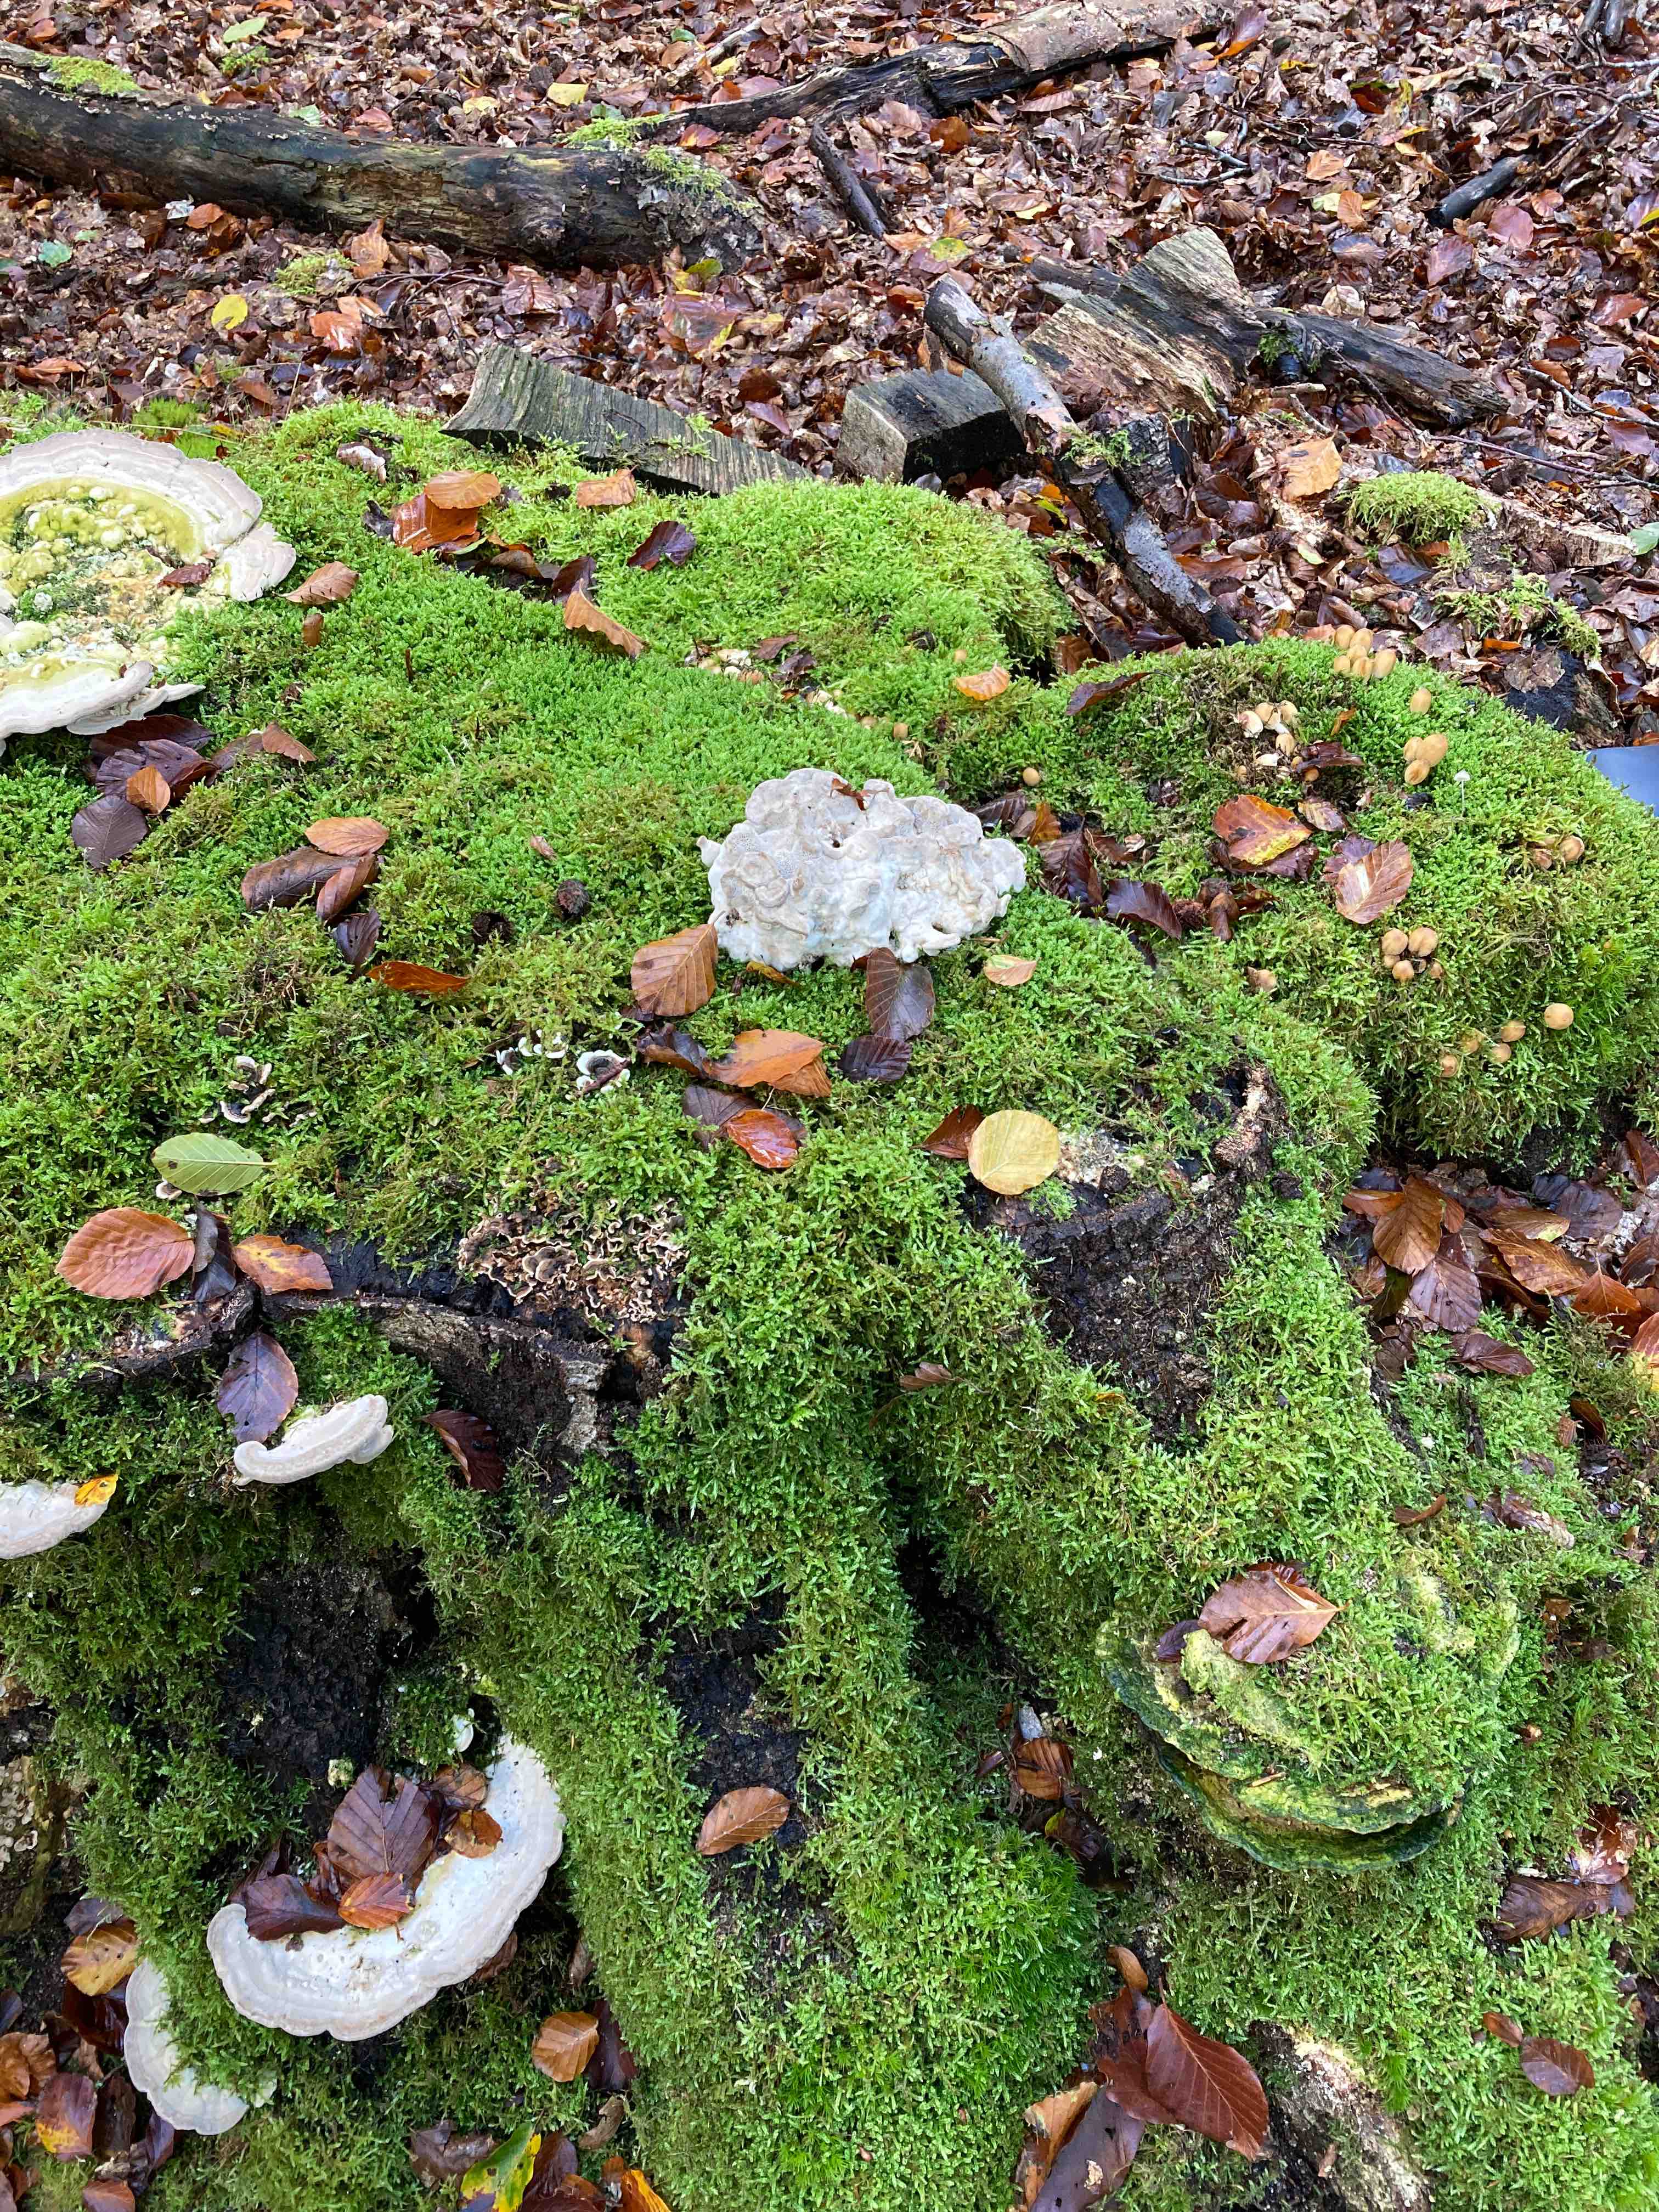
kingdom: Fungi
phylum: Basidiomycota
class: Agaricomycetes
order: Polyporales
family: Polyporaceae
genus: Trametes
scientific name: Trametes
